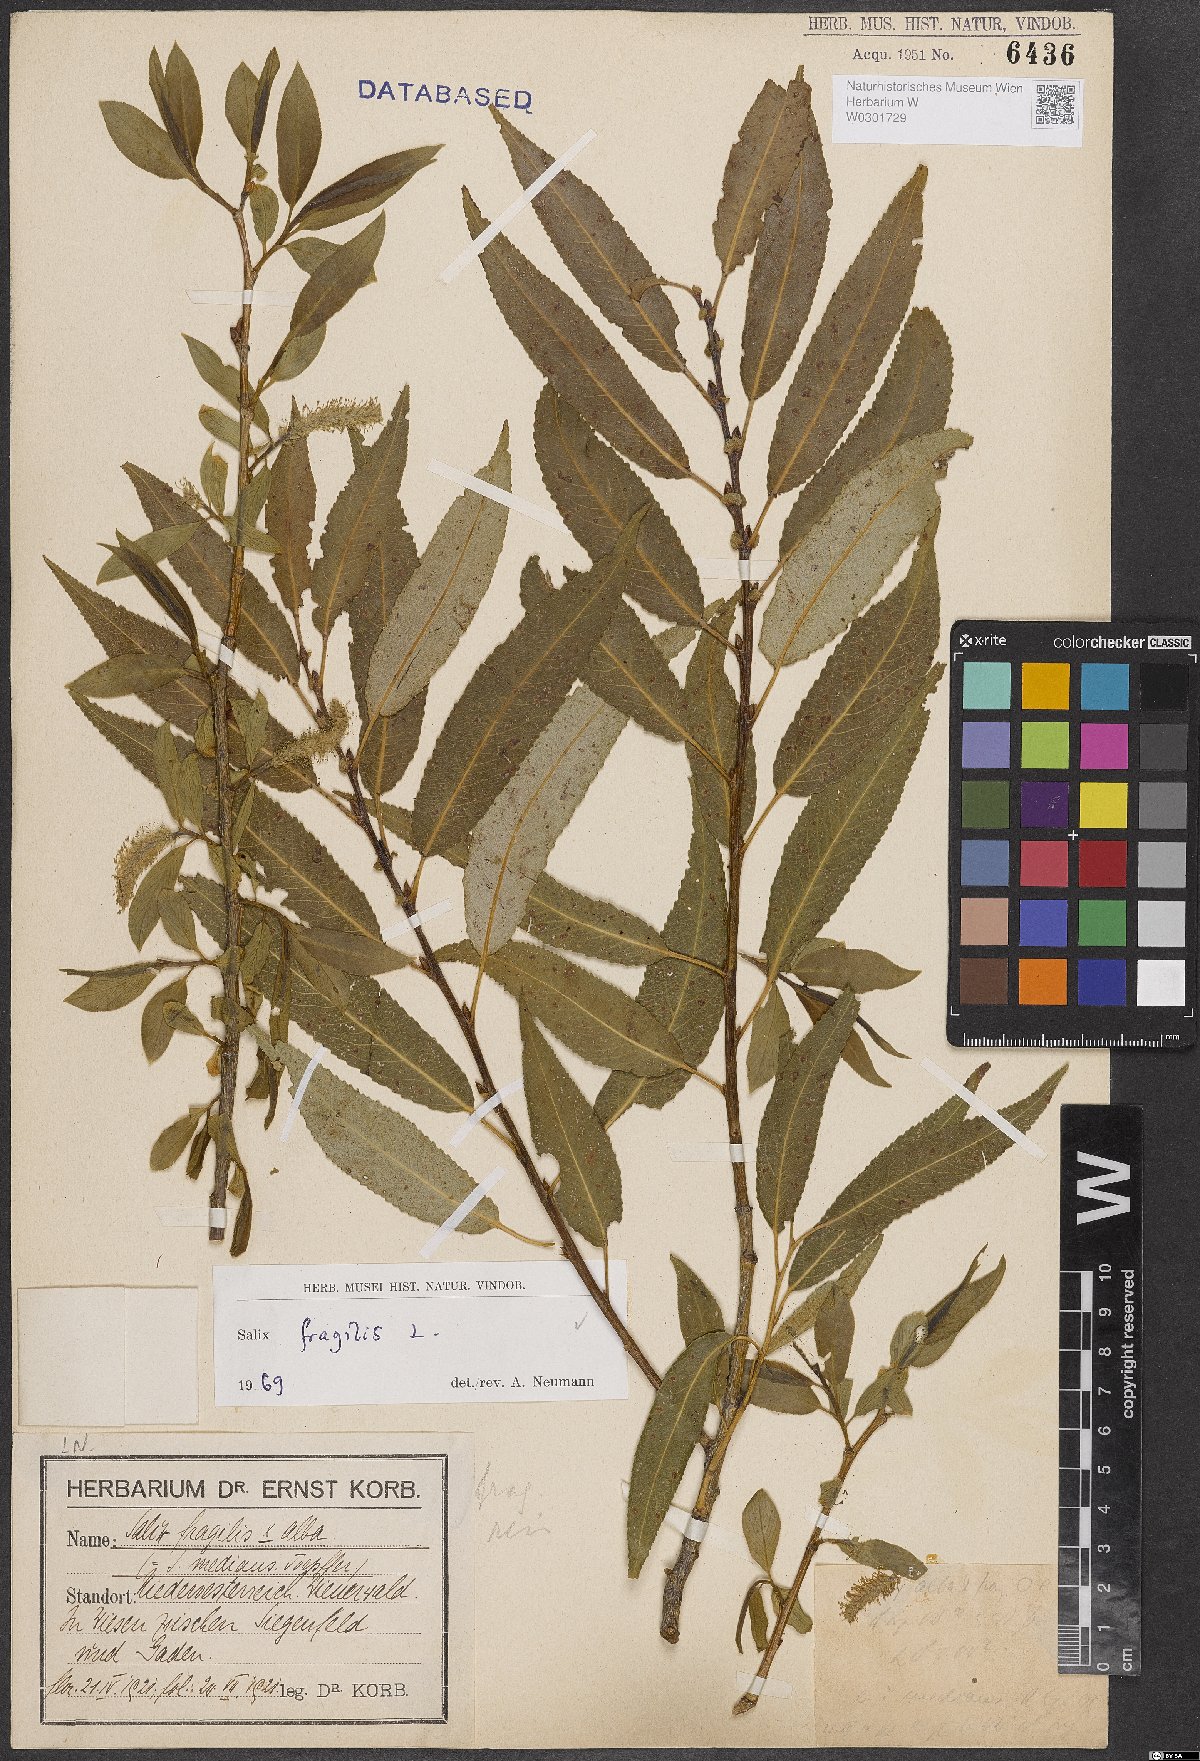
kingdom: Plantae
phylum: Tracheophyta
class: Magnoliopsida
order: Malpighiales
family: Salicaceae
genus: Salix
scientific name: Salix fragilis
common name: Crack willow
